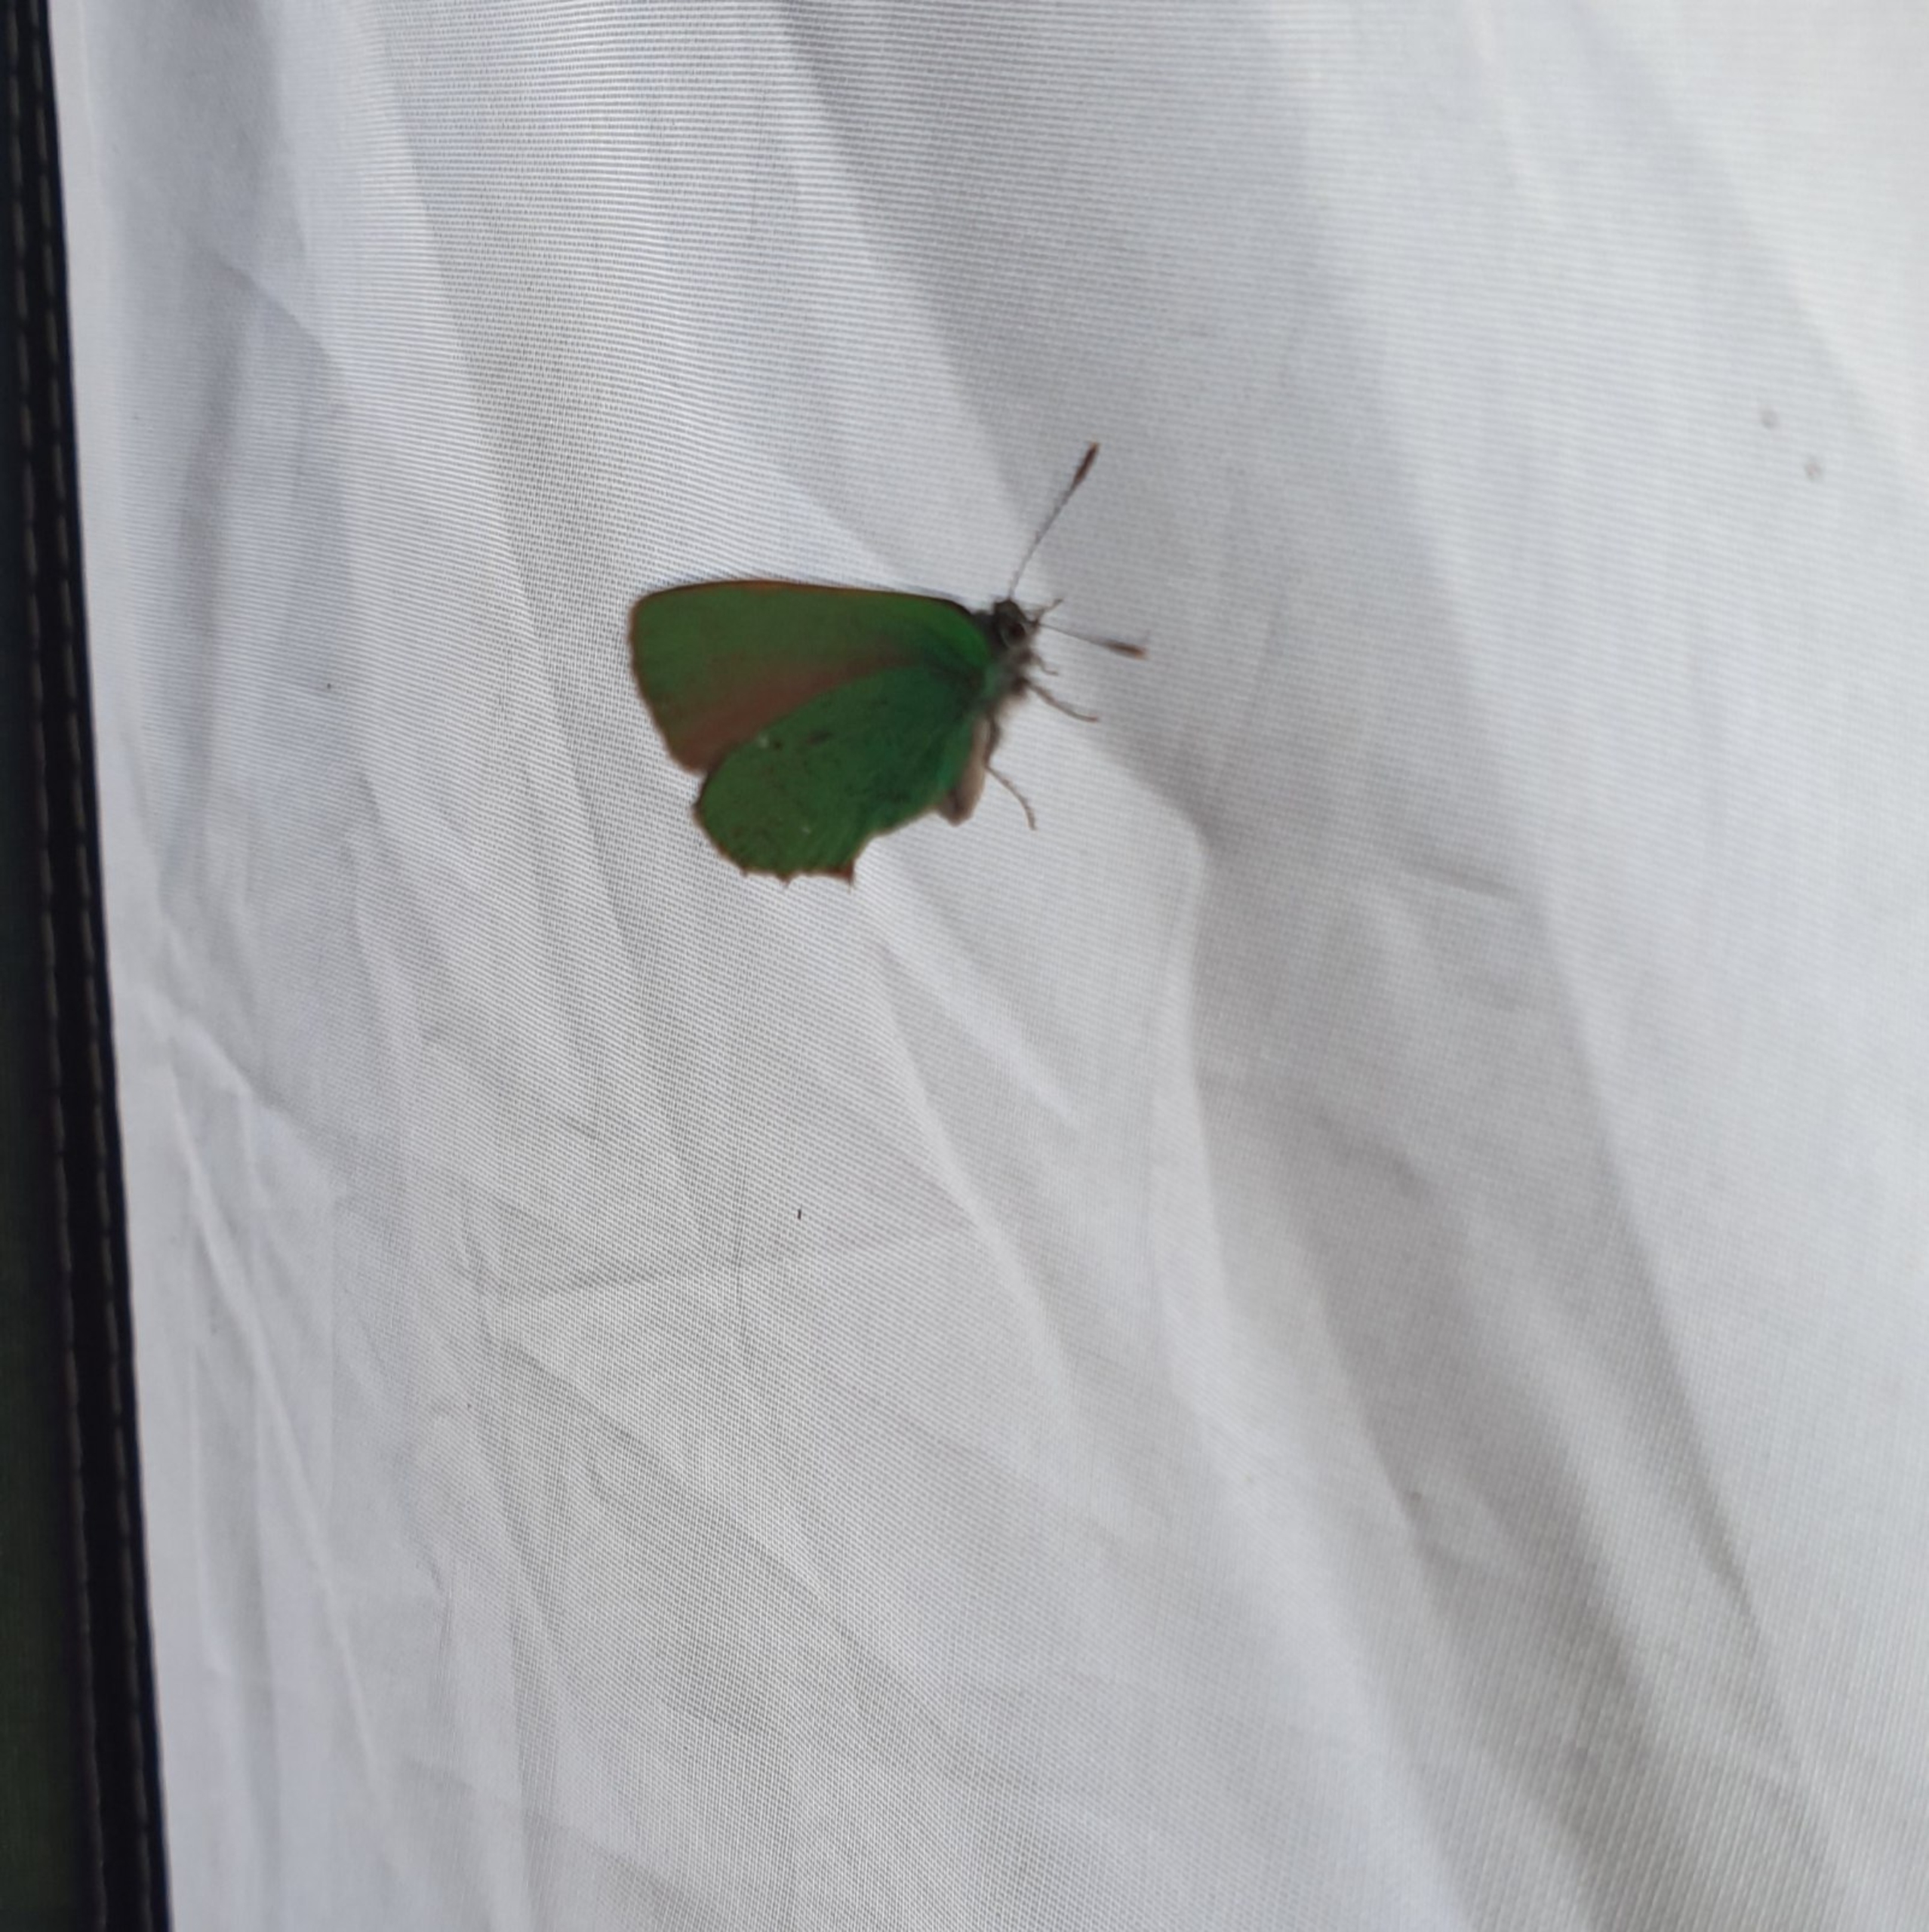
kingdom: Animalia
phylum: Arthropoda
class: Insecta
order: Lepidoptera
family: Lycaenidae
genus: Callophrys
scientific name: Callophrys rubi
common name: Grøn busksommerfugl
